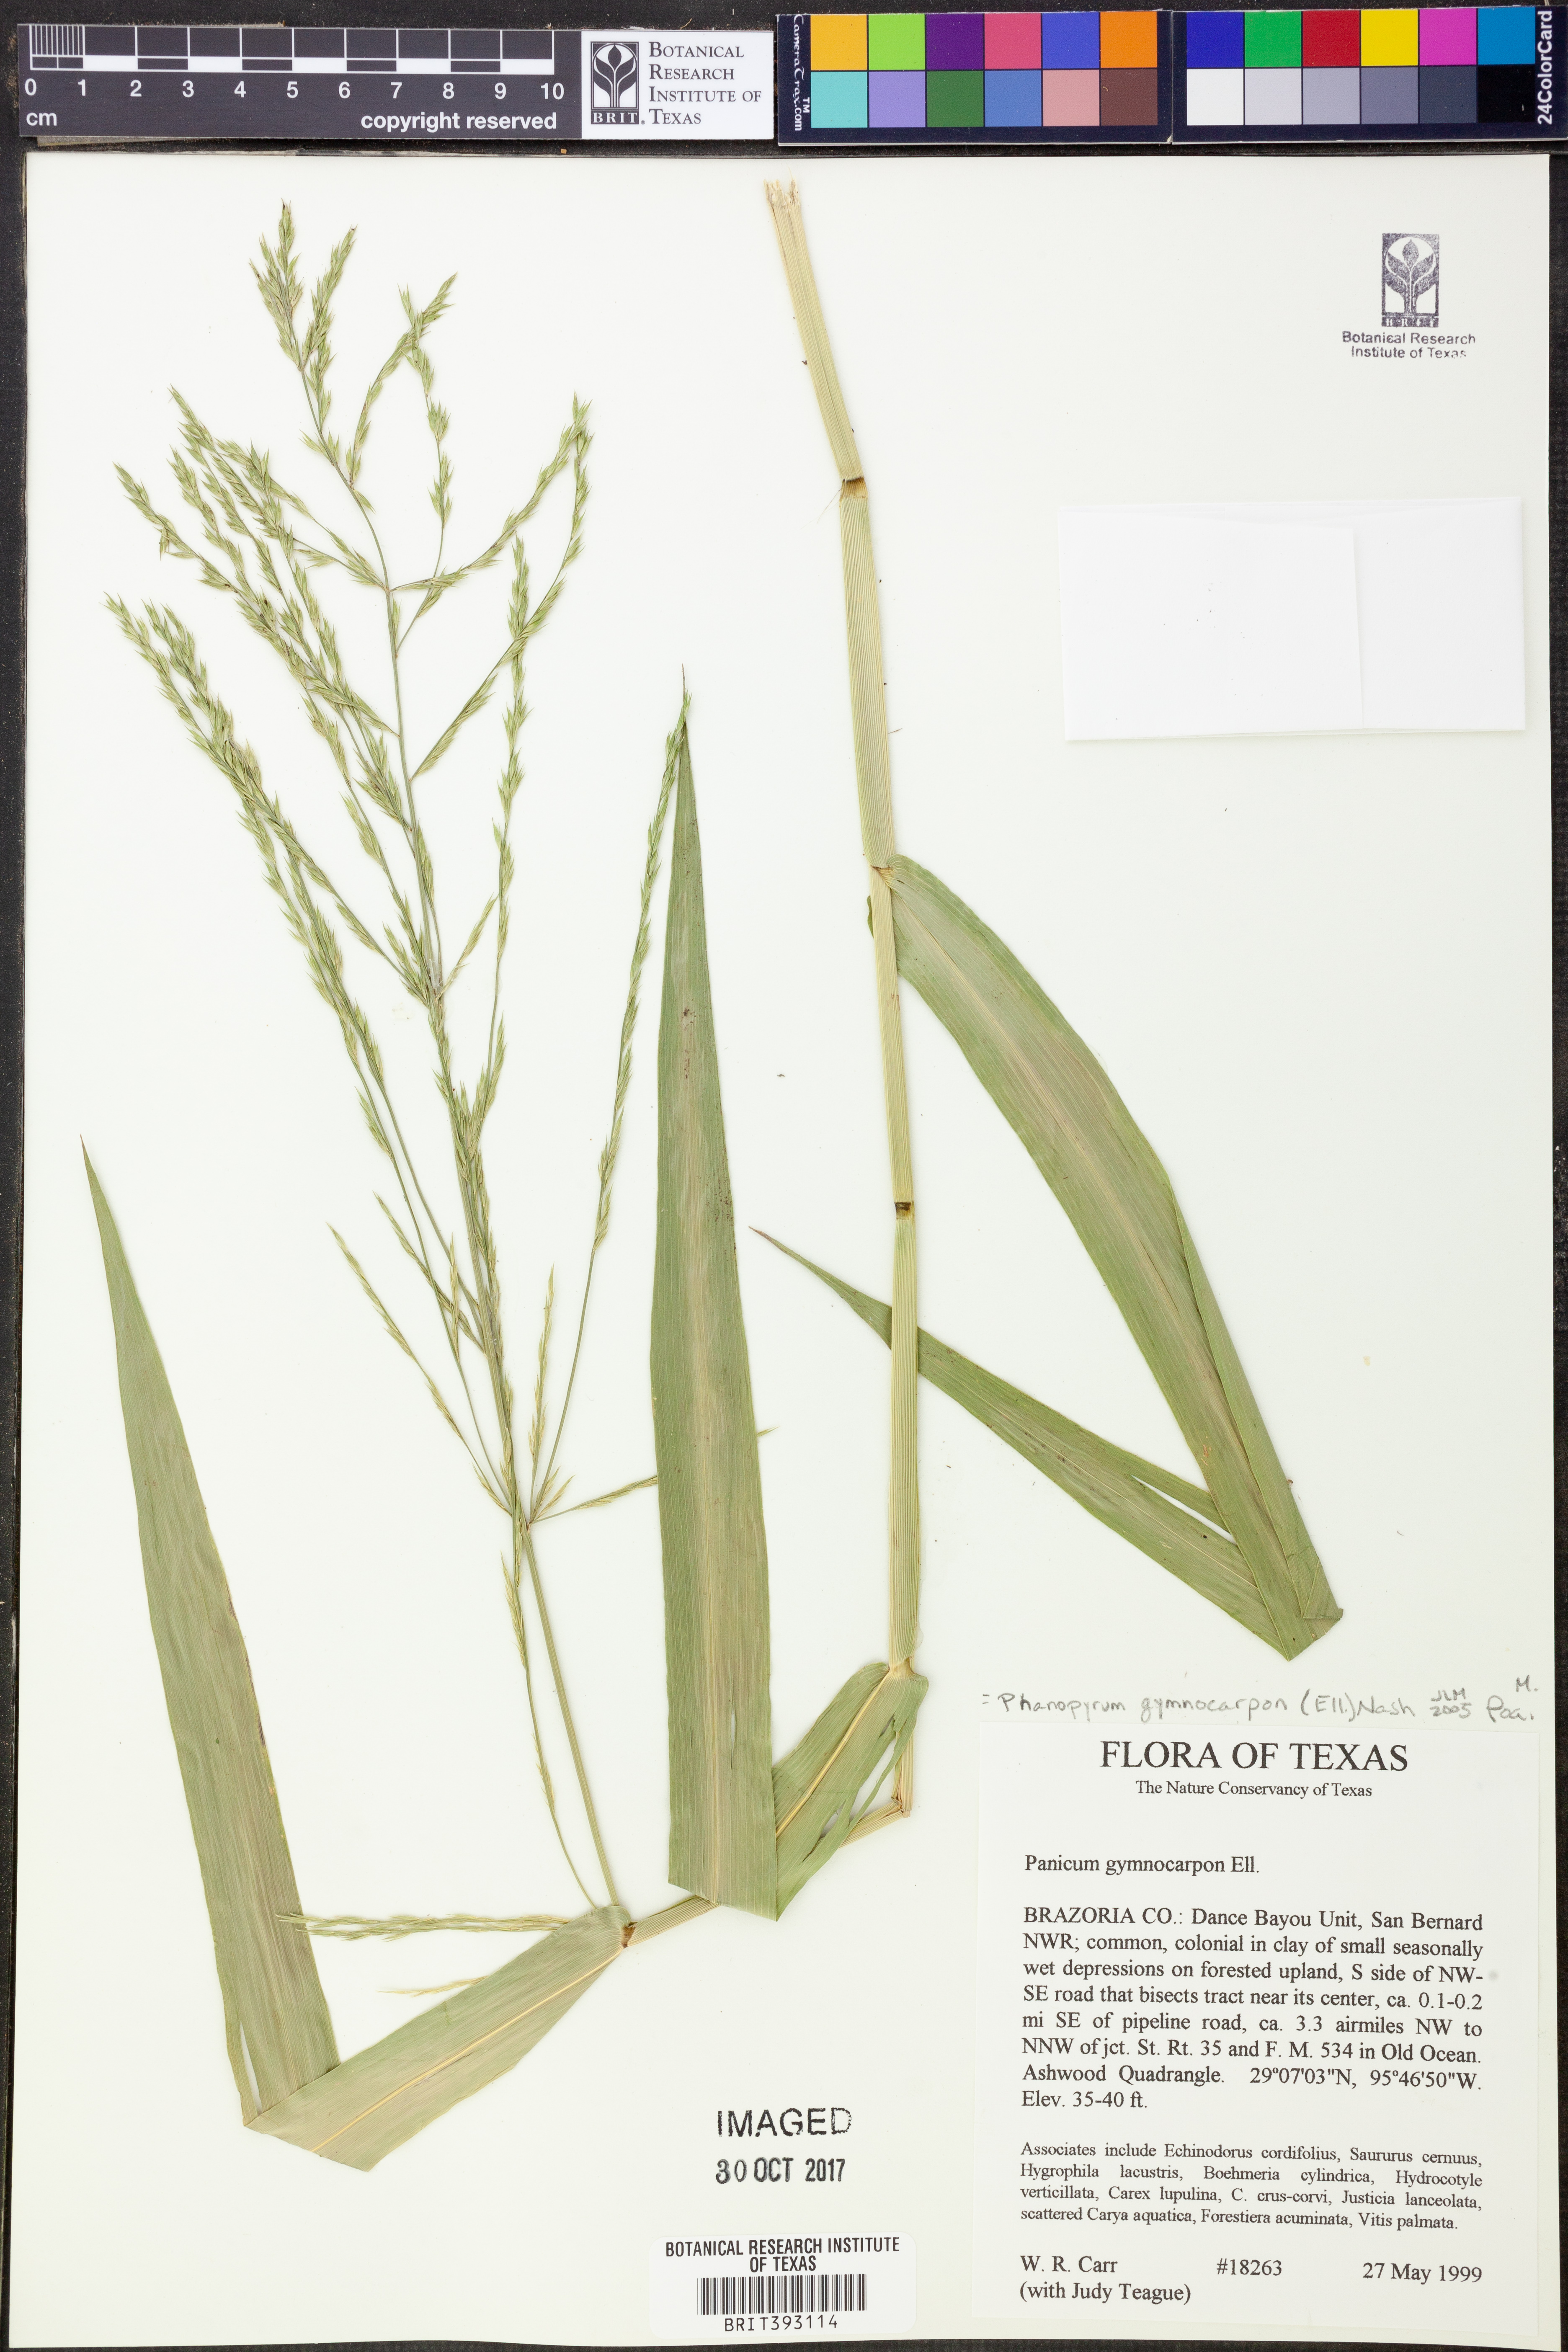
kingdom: Plantae
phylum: Tracheophyta
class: Liliopsida
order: Poales
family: Poaceae
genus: Panicum
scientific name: Panicum gymnocarpon
